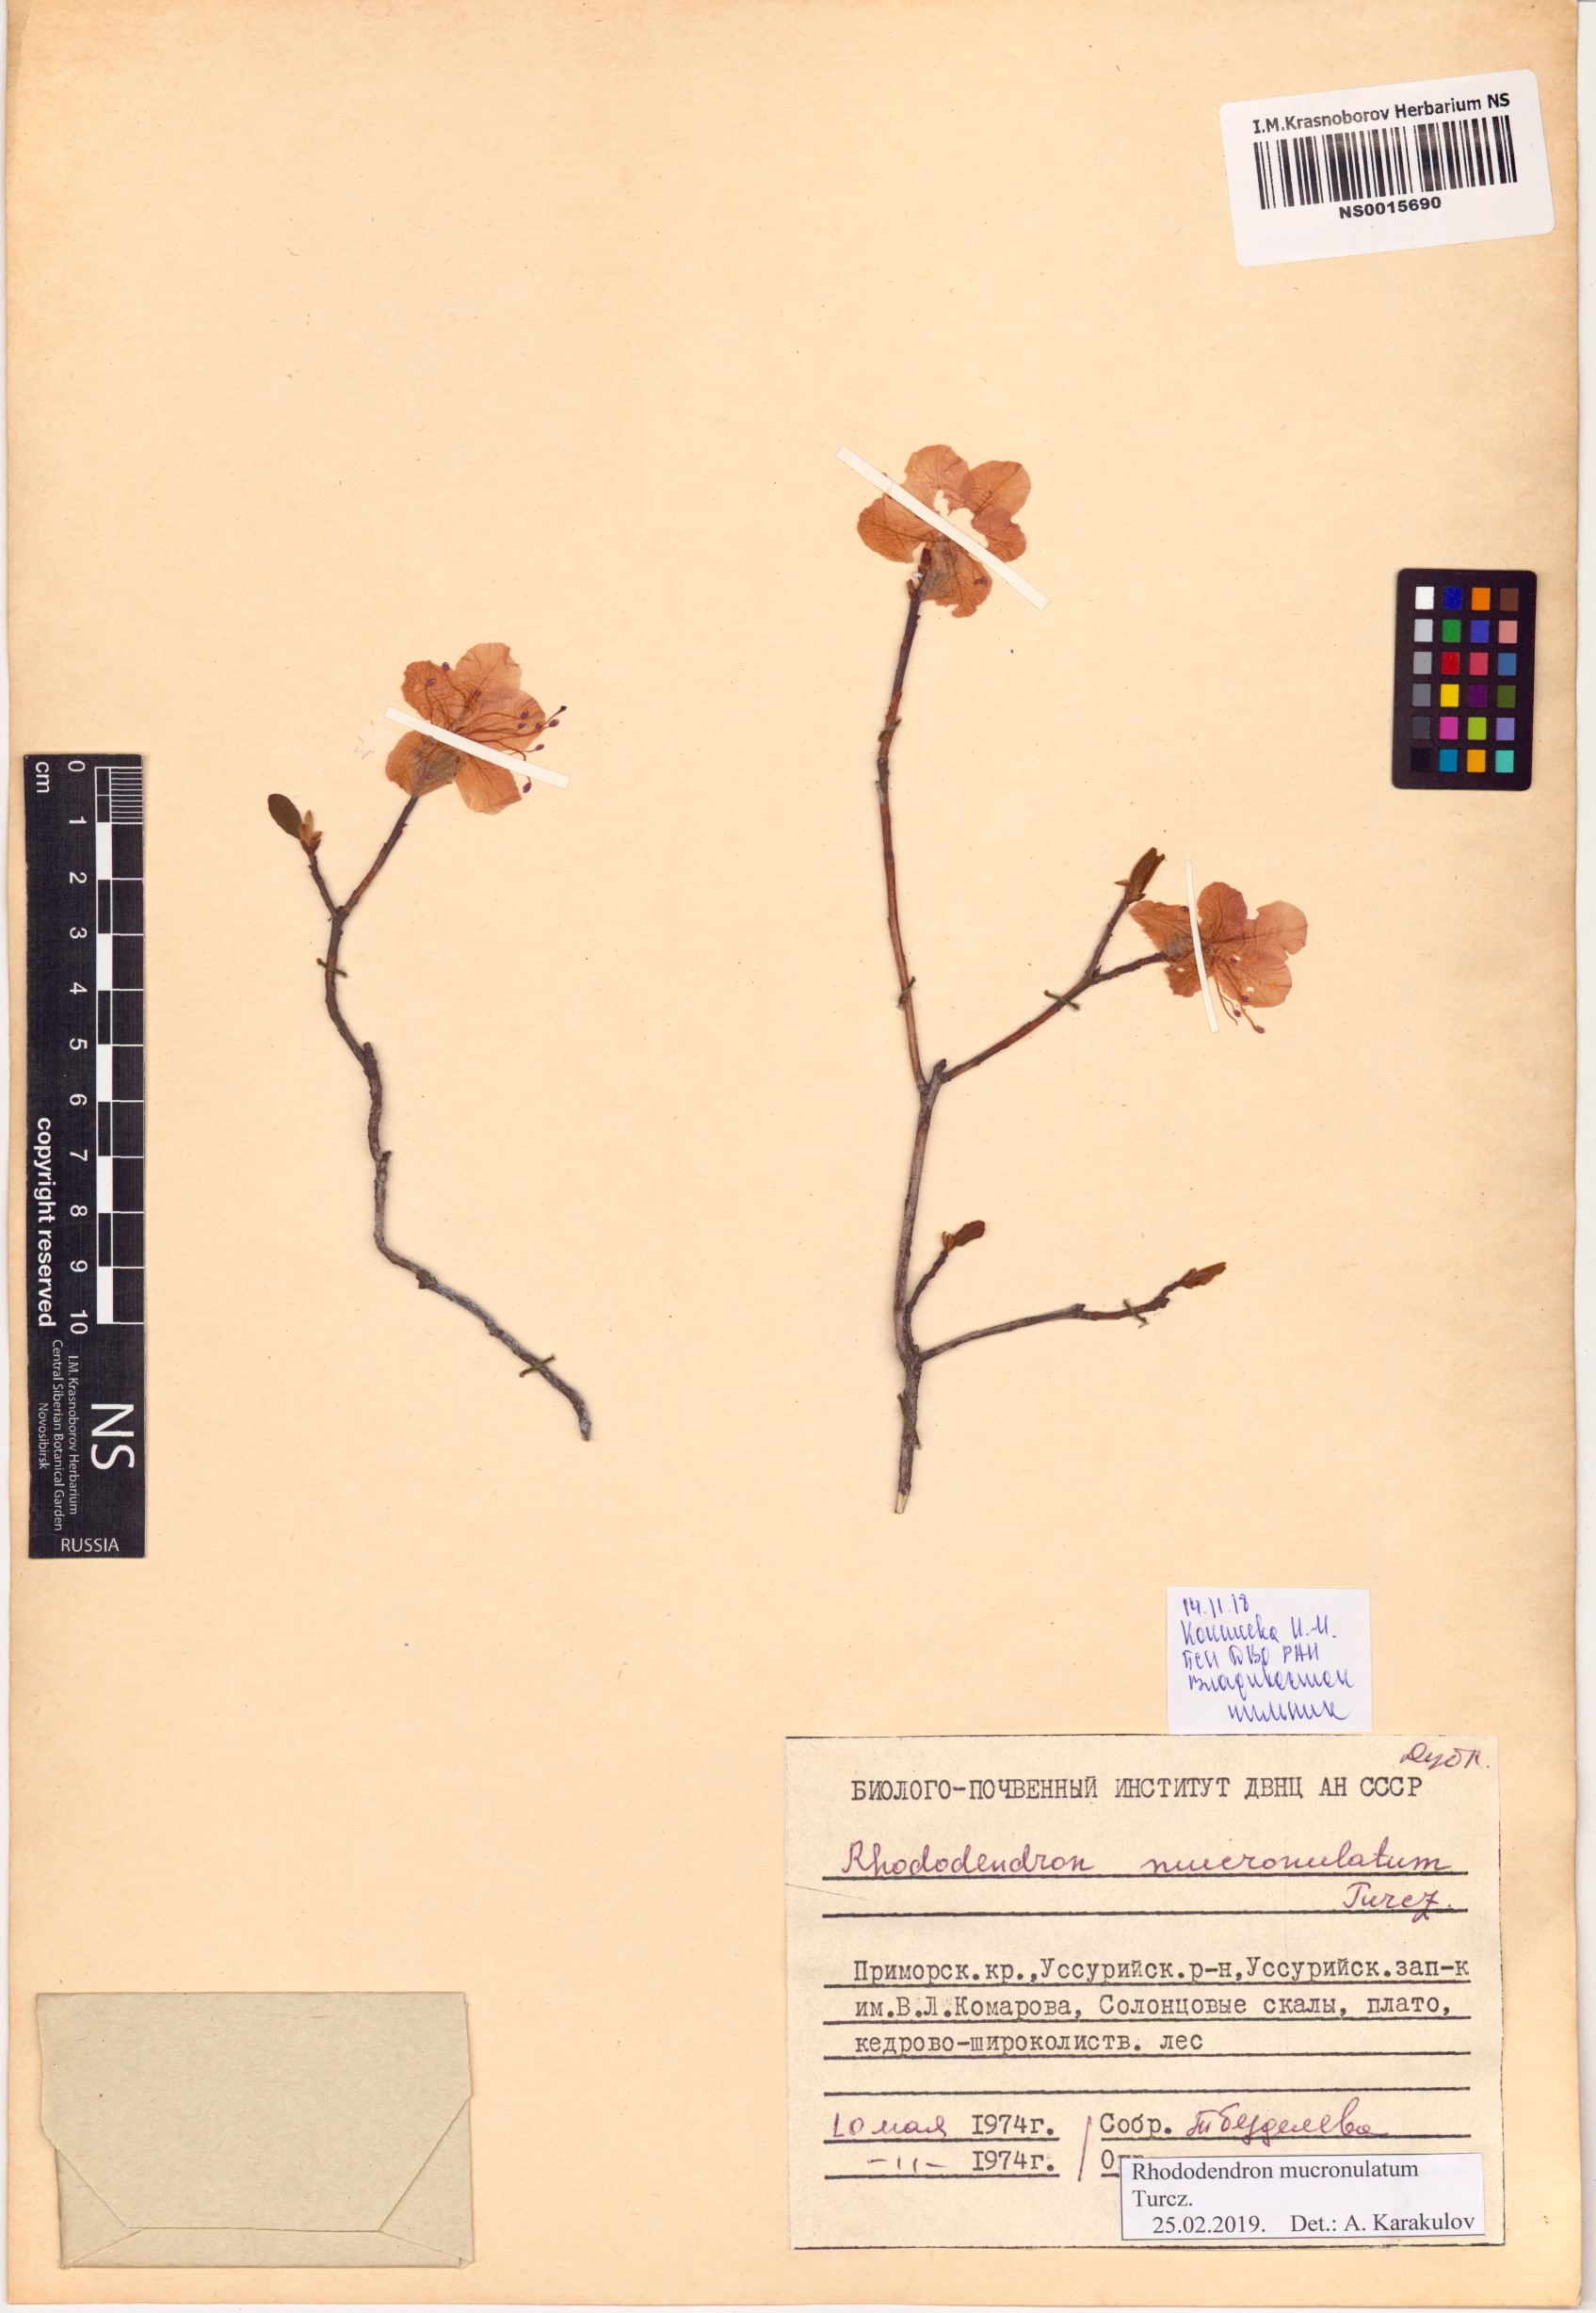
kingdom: Plantae
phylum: Tracheophyta
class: Magnoliopsida
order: Ericales
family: Ericaceae
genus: Rhododendron
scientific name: Rhododendron mucronulatum
